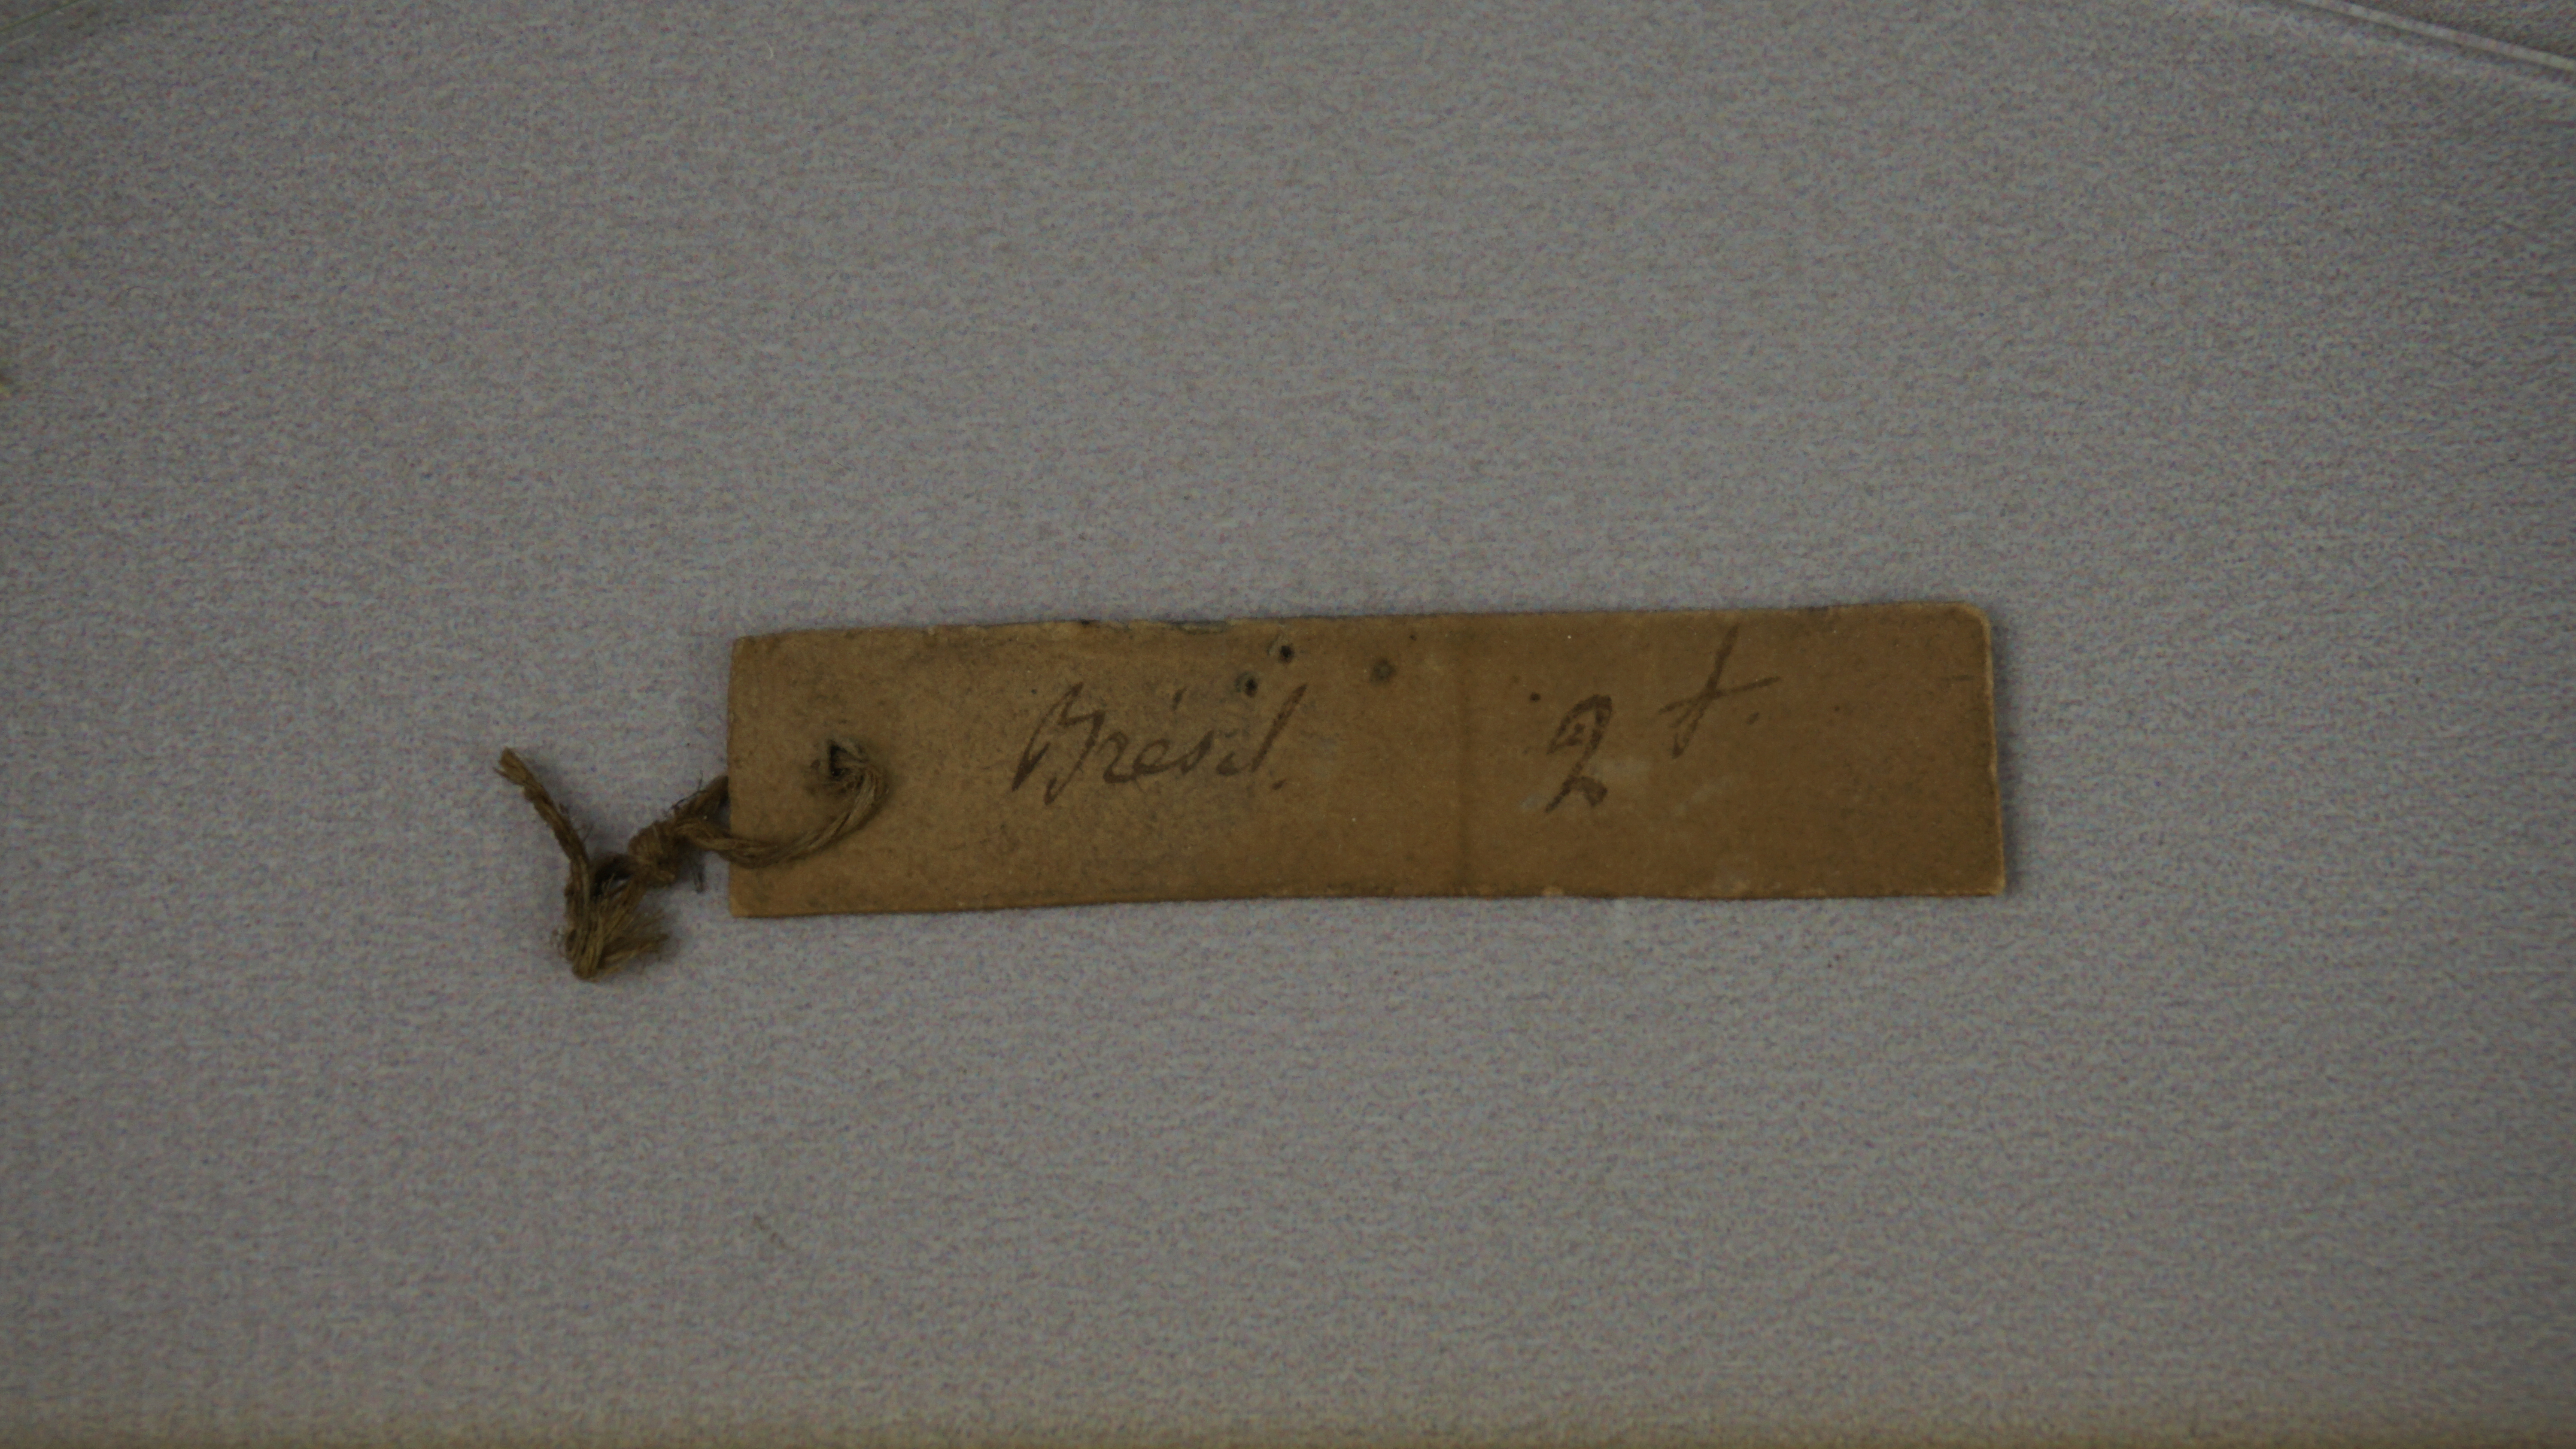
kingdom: Animalia
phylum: Chordata
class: Aves
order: Passeriformes
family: Tyrannidae
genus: Empidonomus
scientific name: Empidonomus varius
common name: Variegated flycatcher
